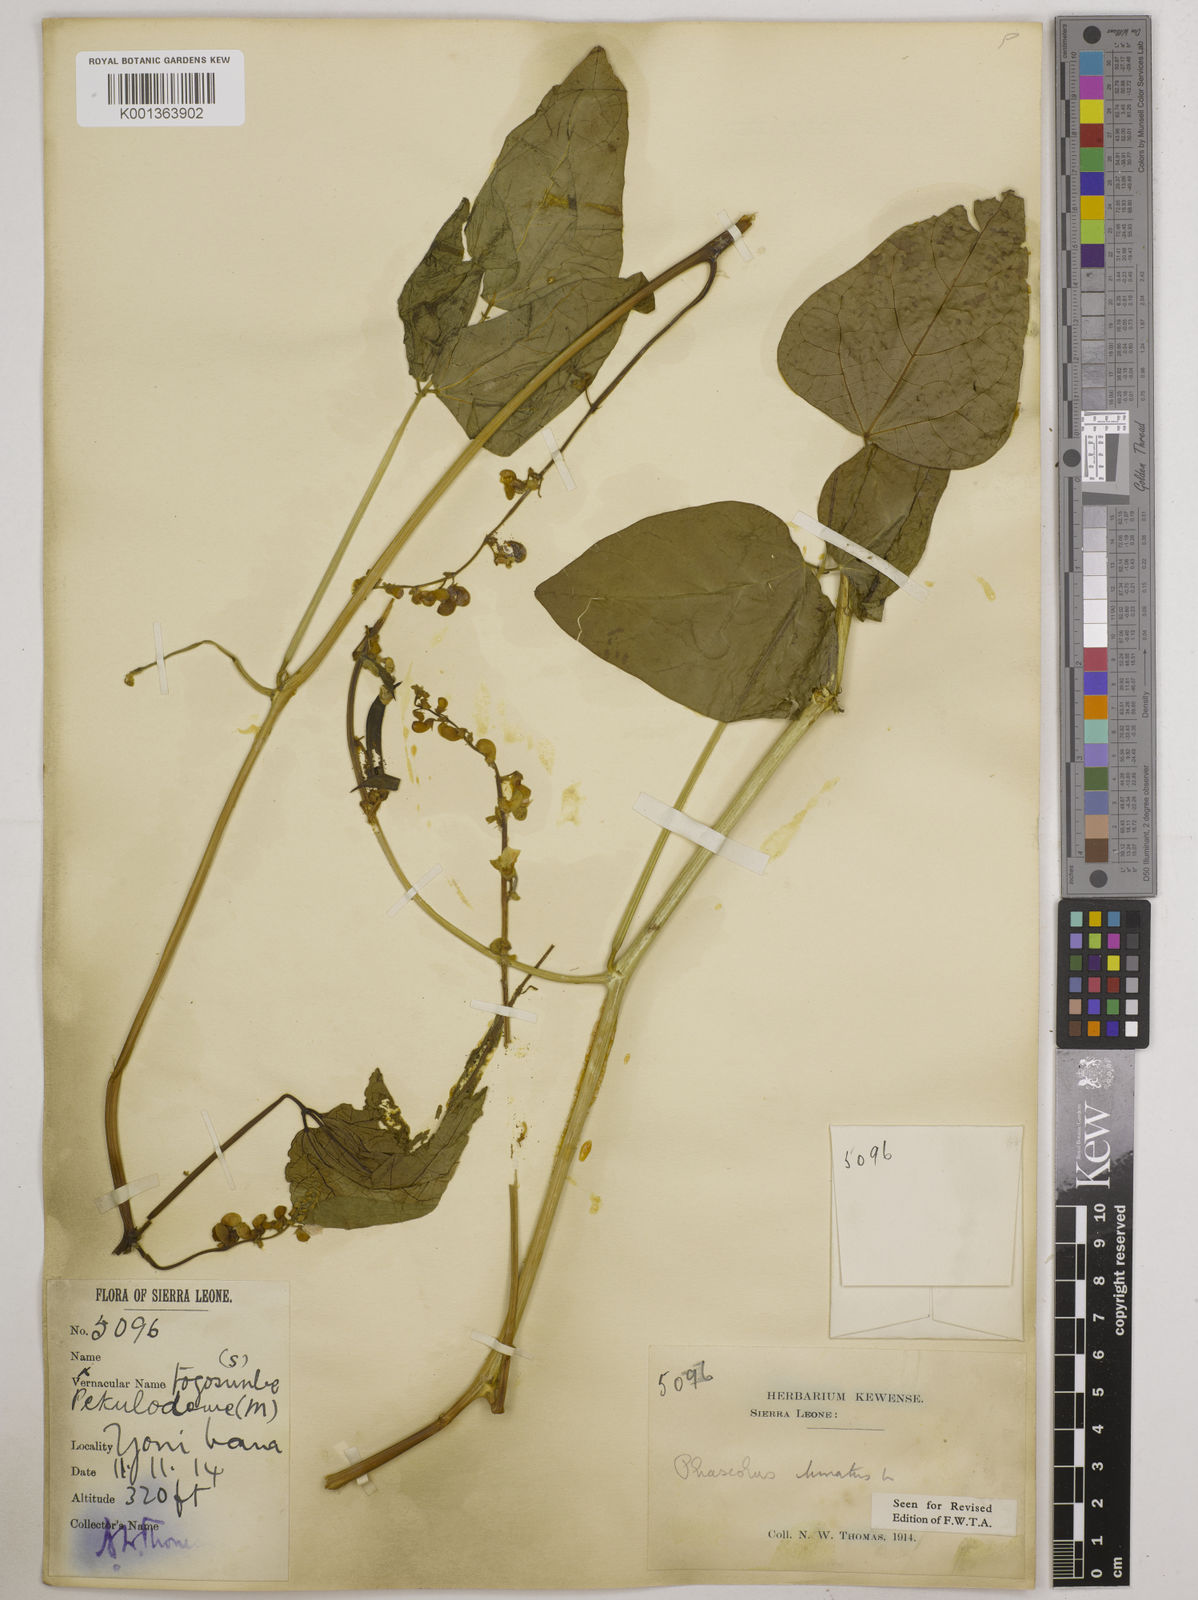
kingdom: Plantae
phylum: Tracheophyta
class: Magnoliopsida
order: Fabales
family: Fabaceae
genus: Phaseolus
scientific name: Phaseolus lunatus
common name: Sieva bean
